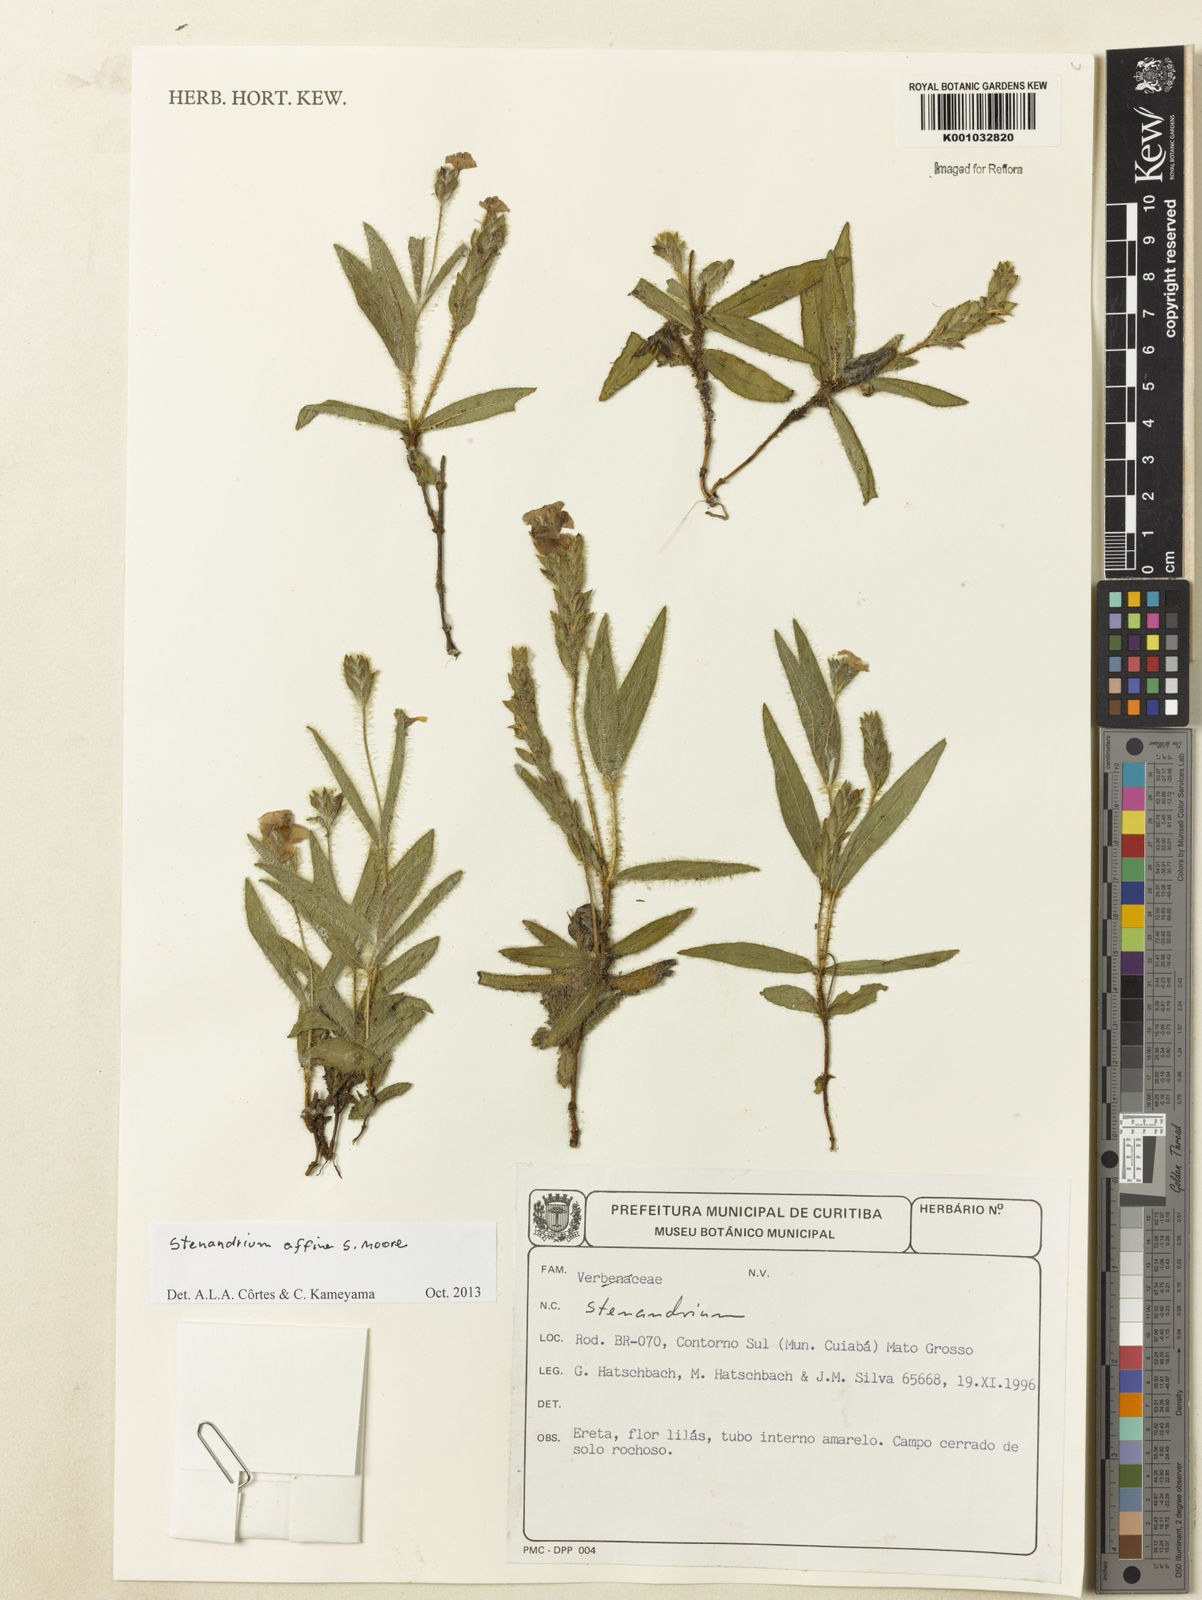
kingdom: Plantae
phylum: Tracheophyta
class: Magnoliopsida
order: Lamiales
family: Acanthaceae
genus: Stenandrium
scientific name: Stenandrium affine
